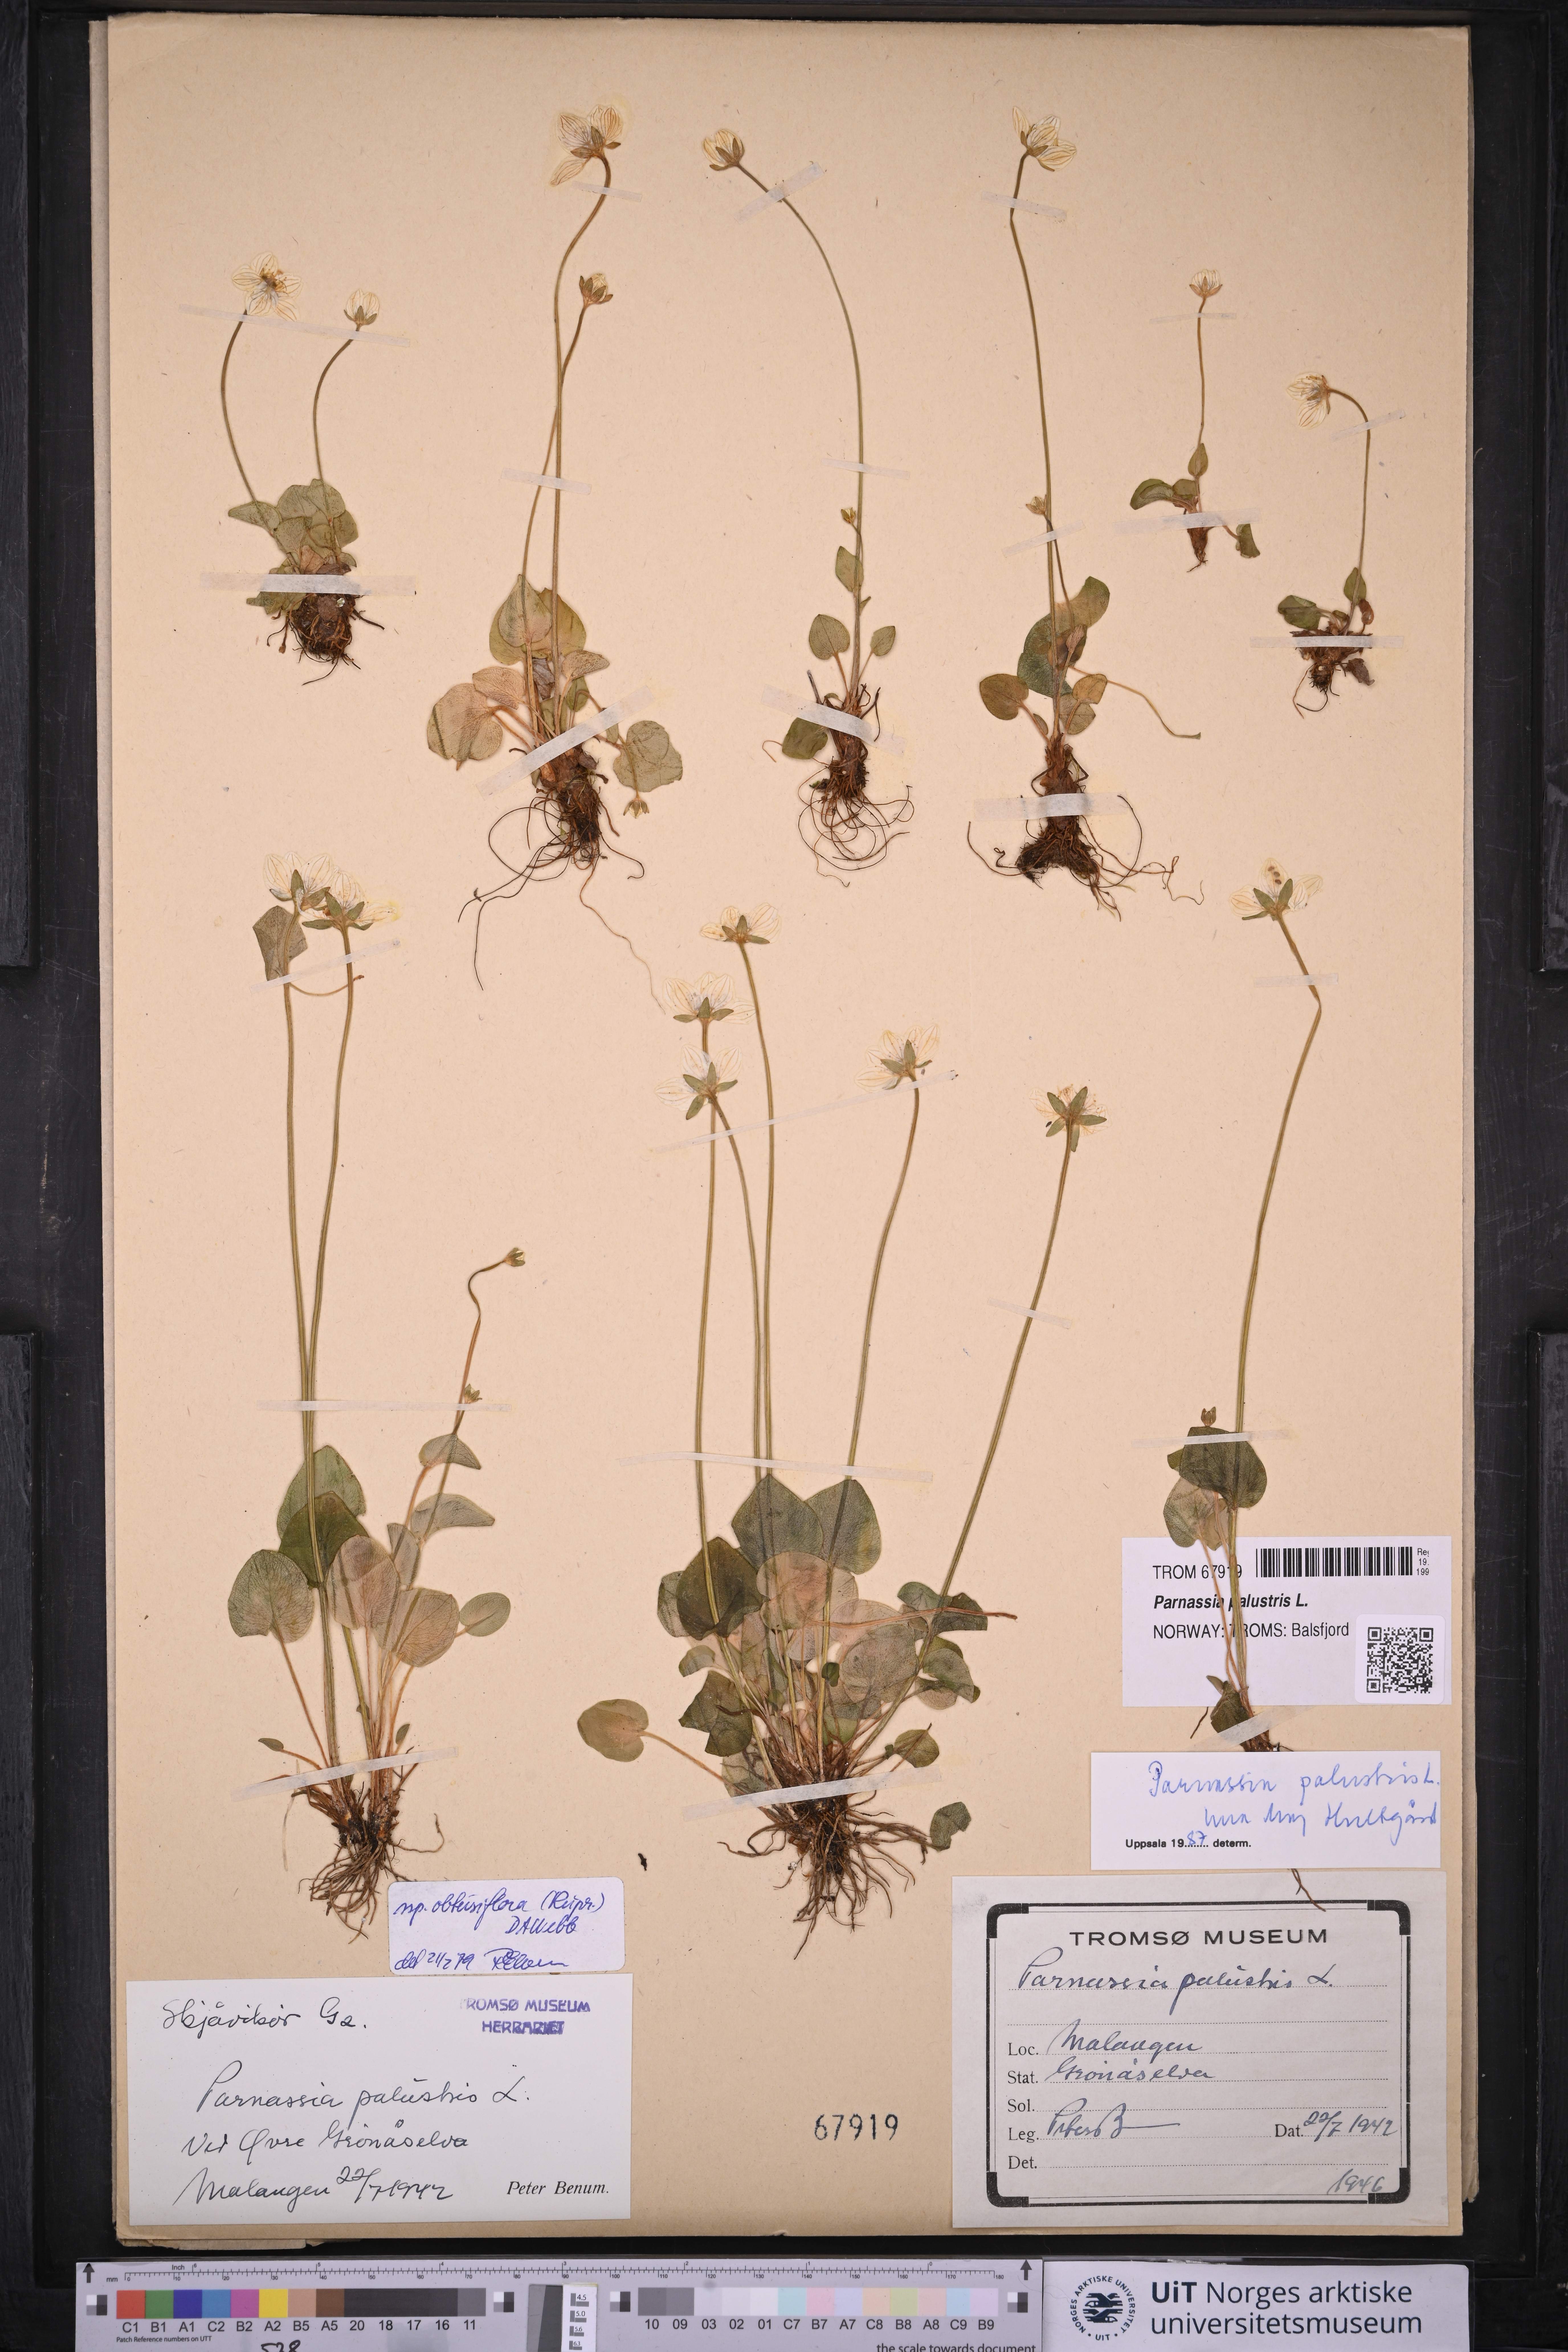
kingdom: Plantae
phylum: Tracheophyta
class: Magnoliopsida
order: Celastrales
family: Parnassiaceae
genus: Parnassia
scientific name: Parnassia palustris
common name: Grass-of-parnassus
